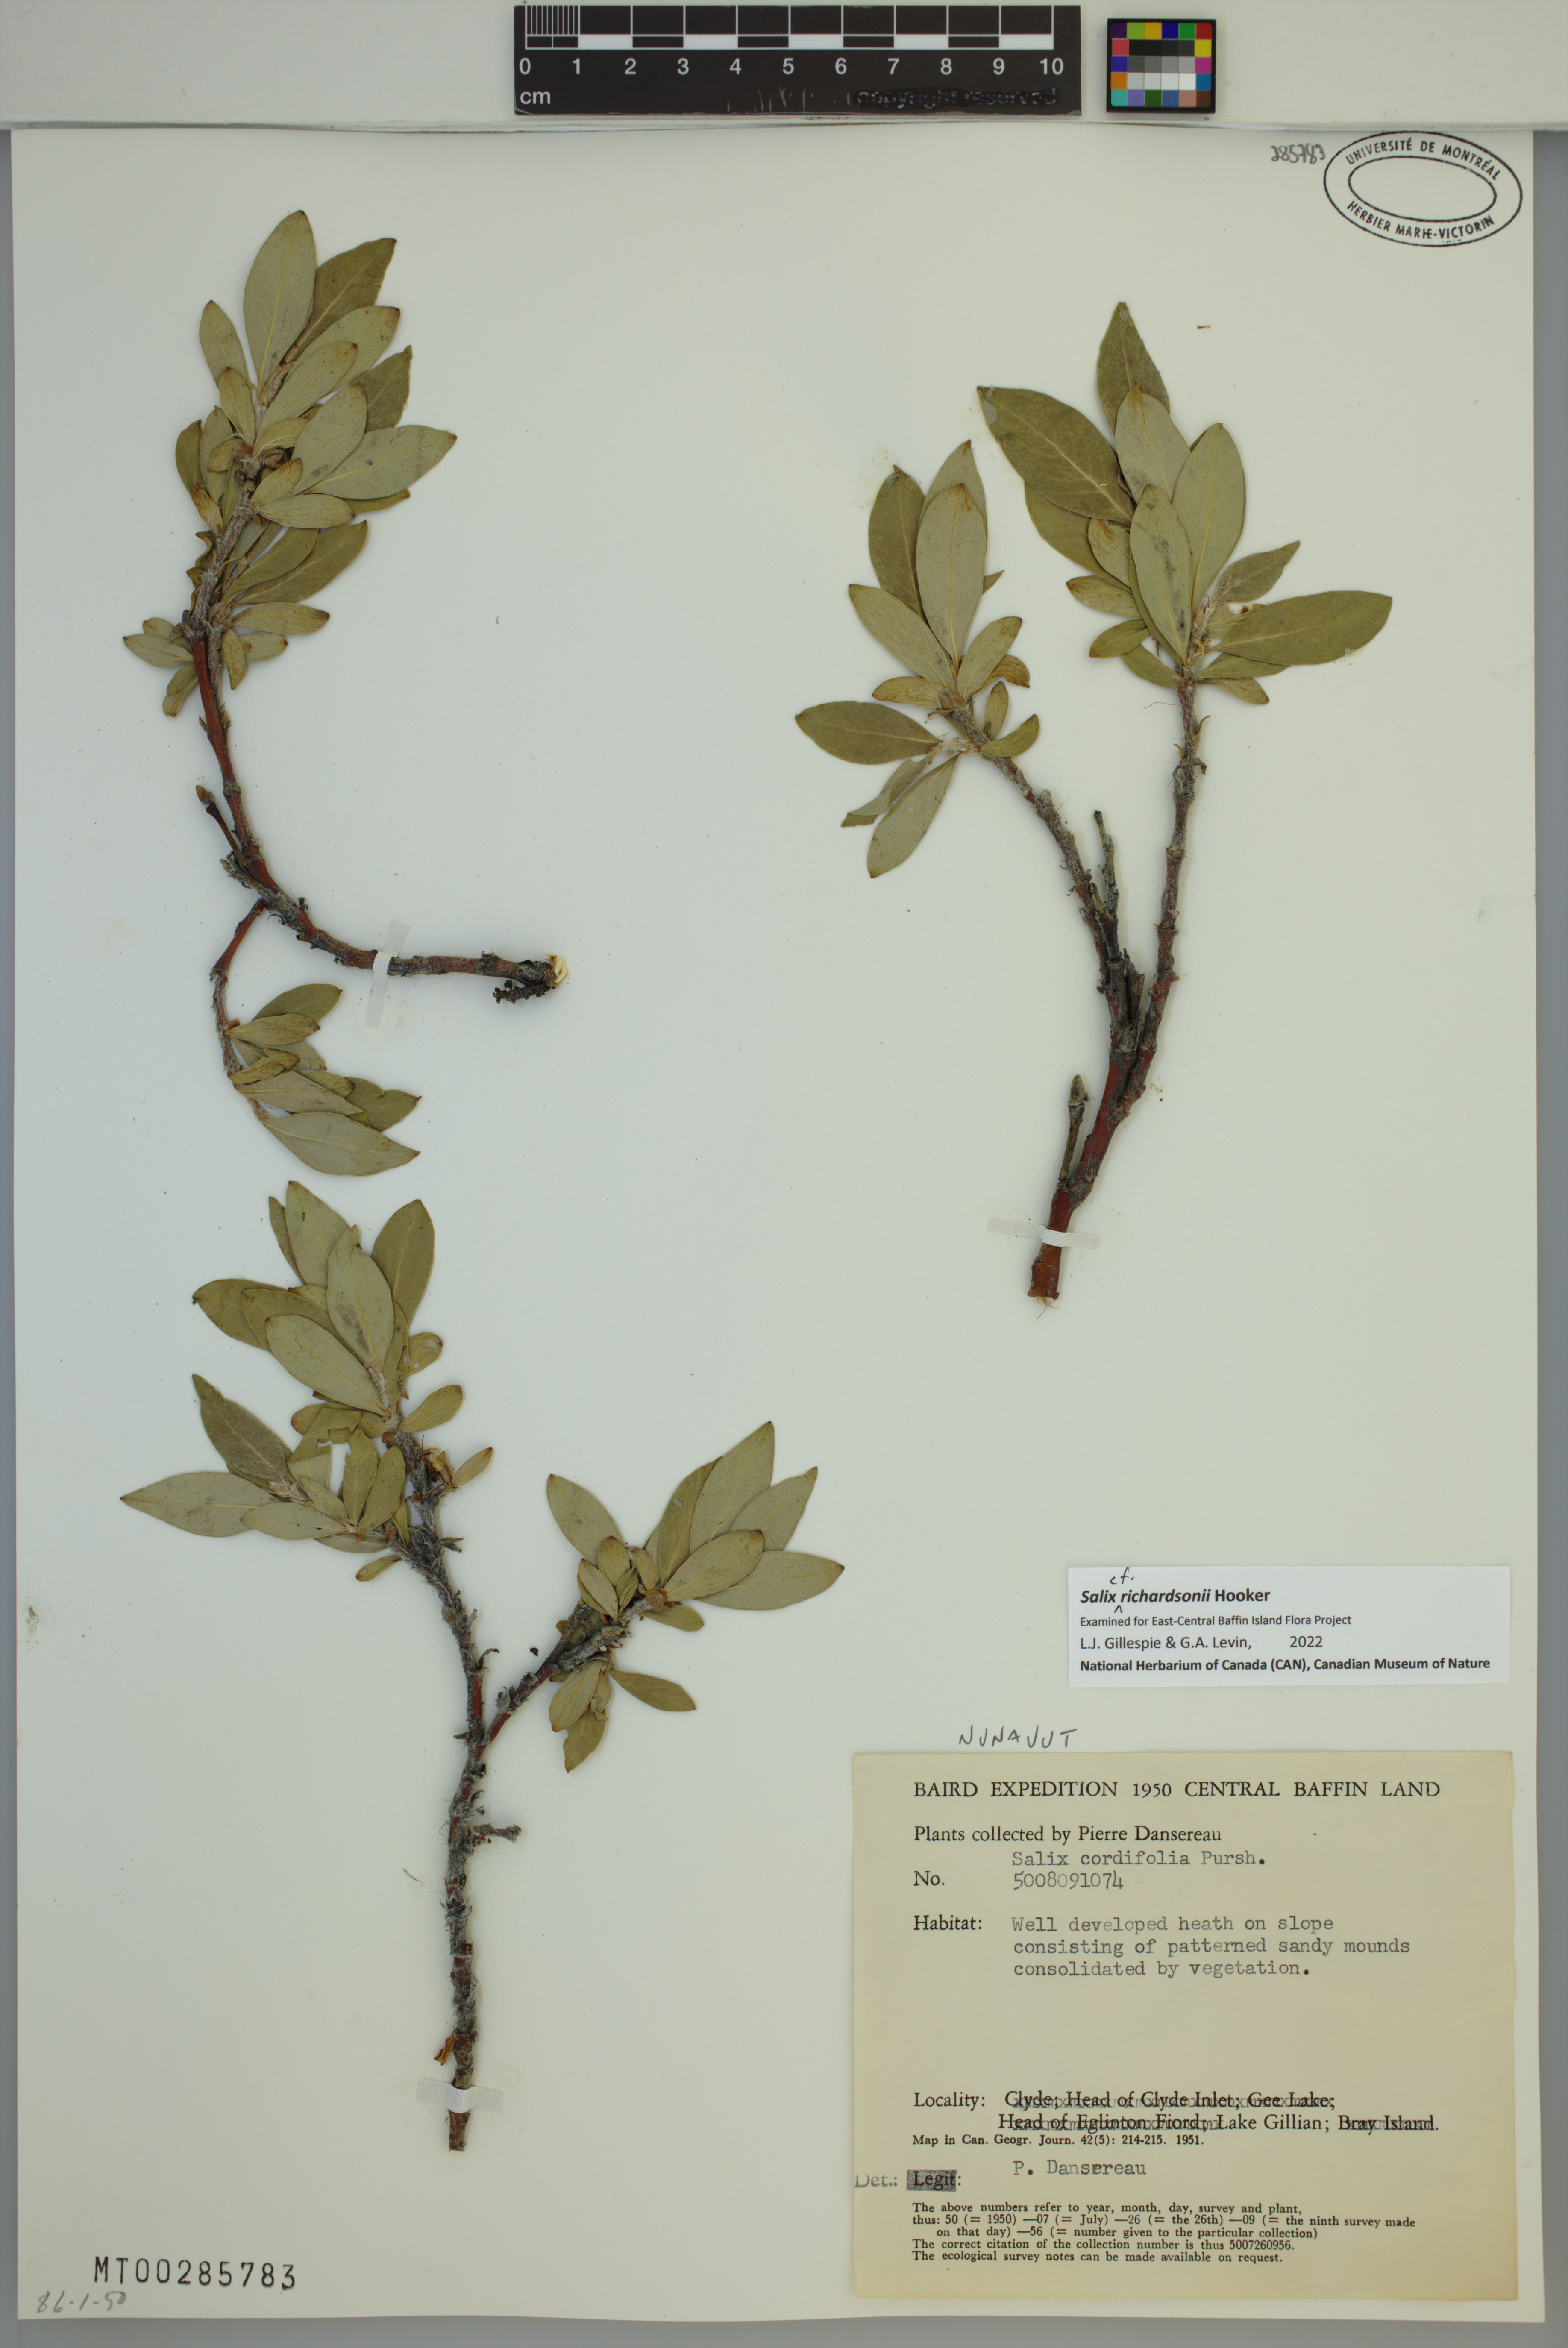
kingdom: Plantae
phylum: Tracheophyta
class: Magnoliopsida
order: Malpighiales
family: Salicaceae
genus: Salix
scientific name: Salix richardsonii
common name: Richardson’s willow
